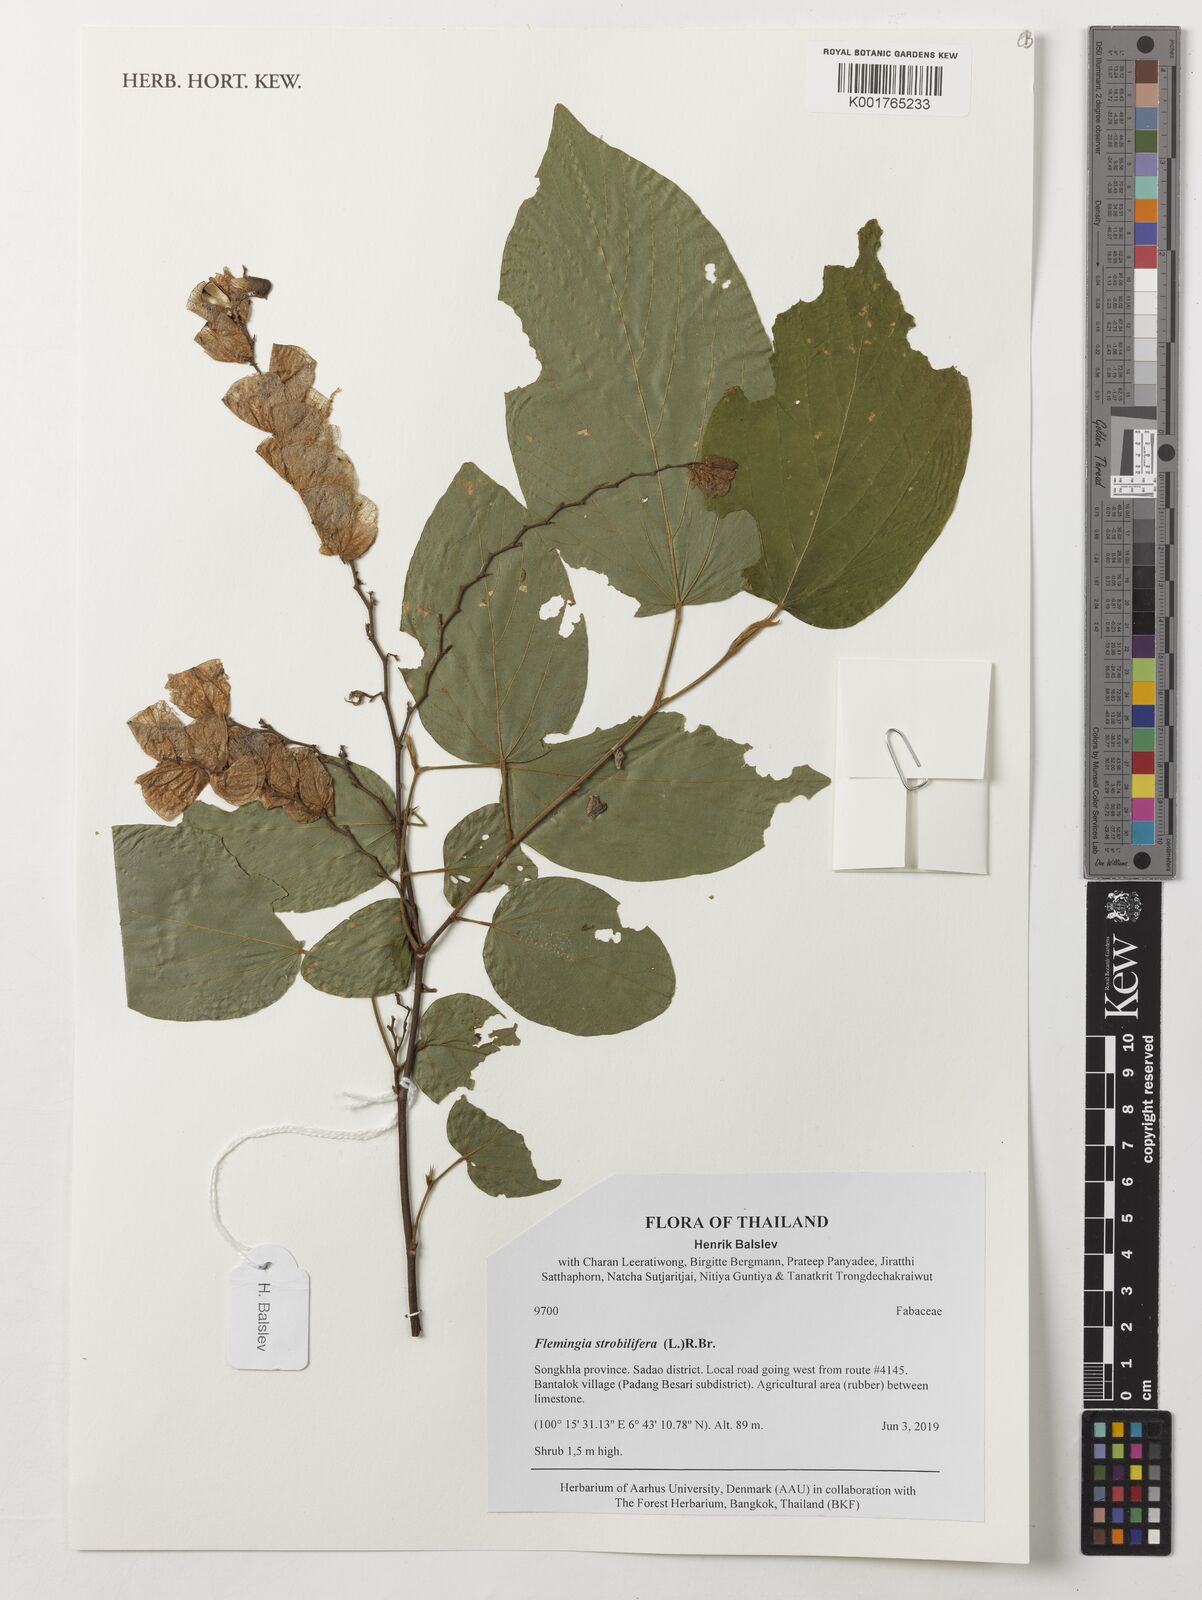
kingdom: Plantae
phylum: Tracheophyta
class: Magnoliopsida
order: Fabales
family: Fabaceae
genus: Flemingia
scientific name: Flemingia strobilifera
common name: Wild hops
